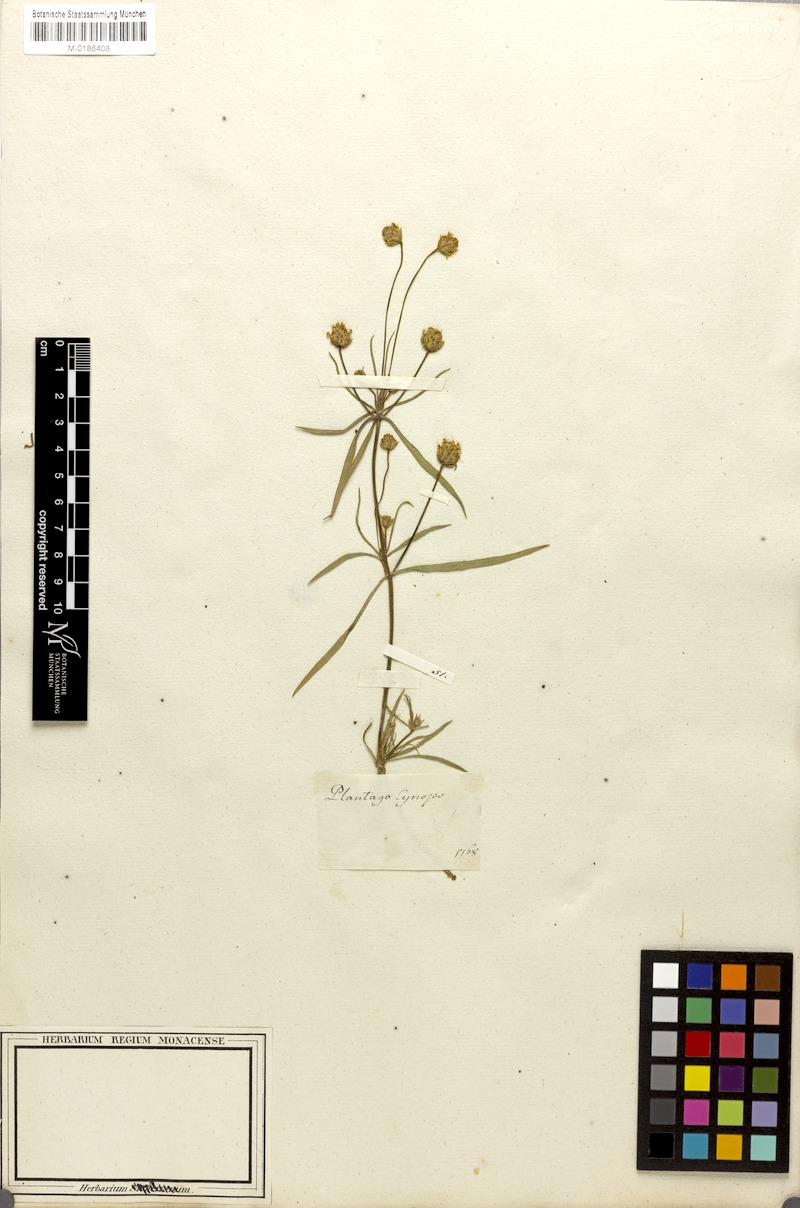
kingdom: Plantae
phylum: Tracheophyta
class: Magnoliopsida
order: Lamiales
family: Plantaginaceae
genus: Plantago
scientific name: Plantago arenaria
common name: Branched plantain
